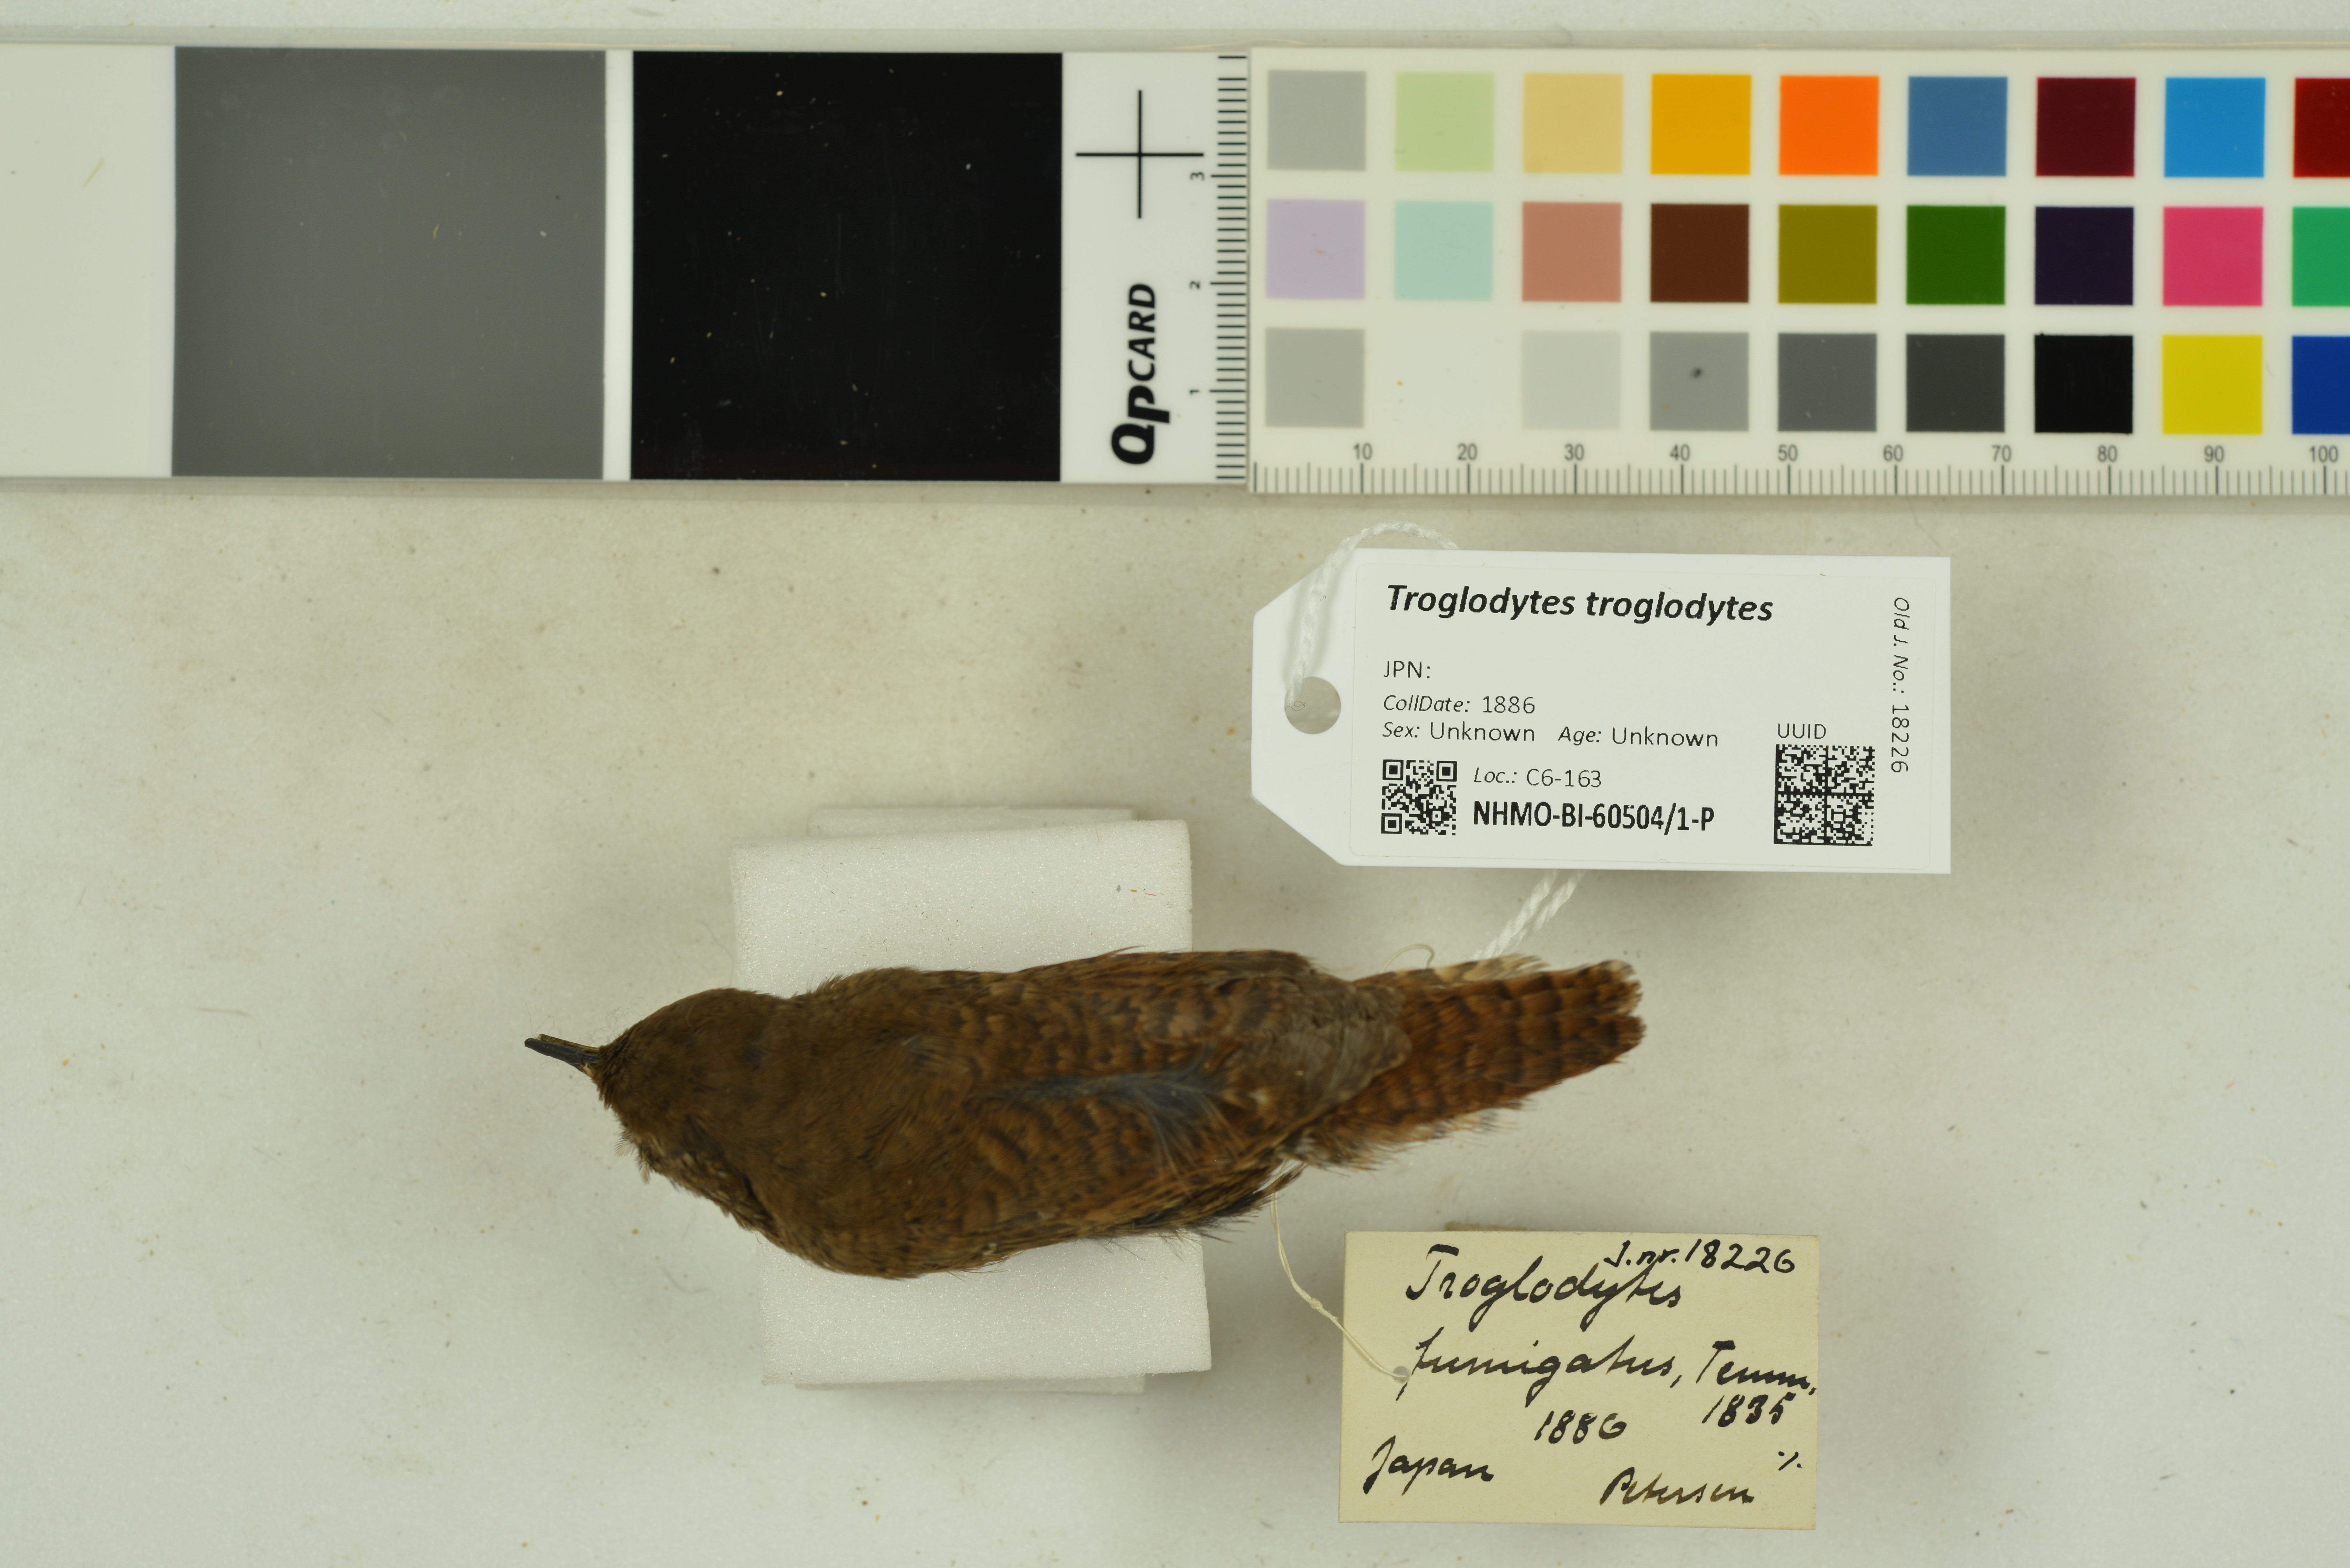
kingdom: Animalia
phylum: Chordata
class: Aves
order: Passeriformes
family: Troglodytidae
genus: Troglodytes
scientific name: Troglodytes troglodytes
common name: Eurasian wren
